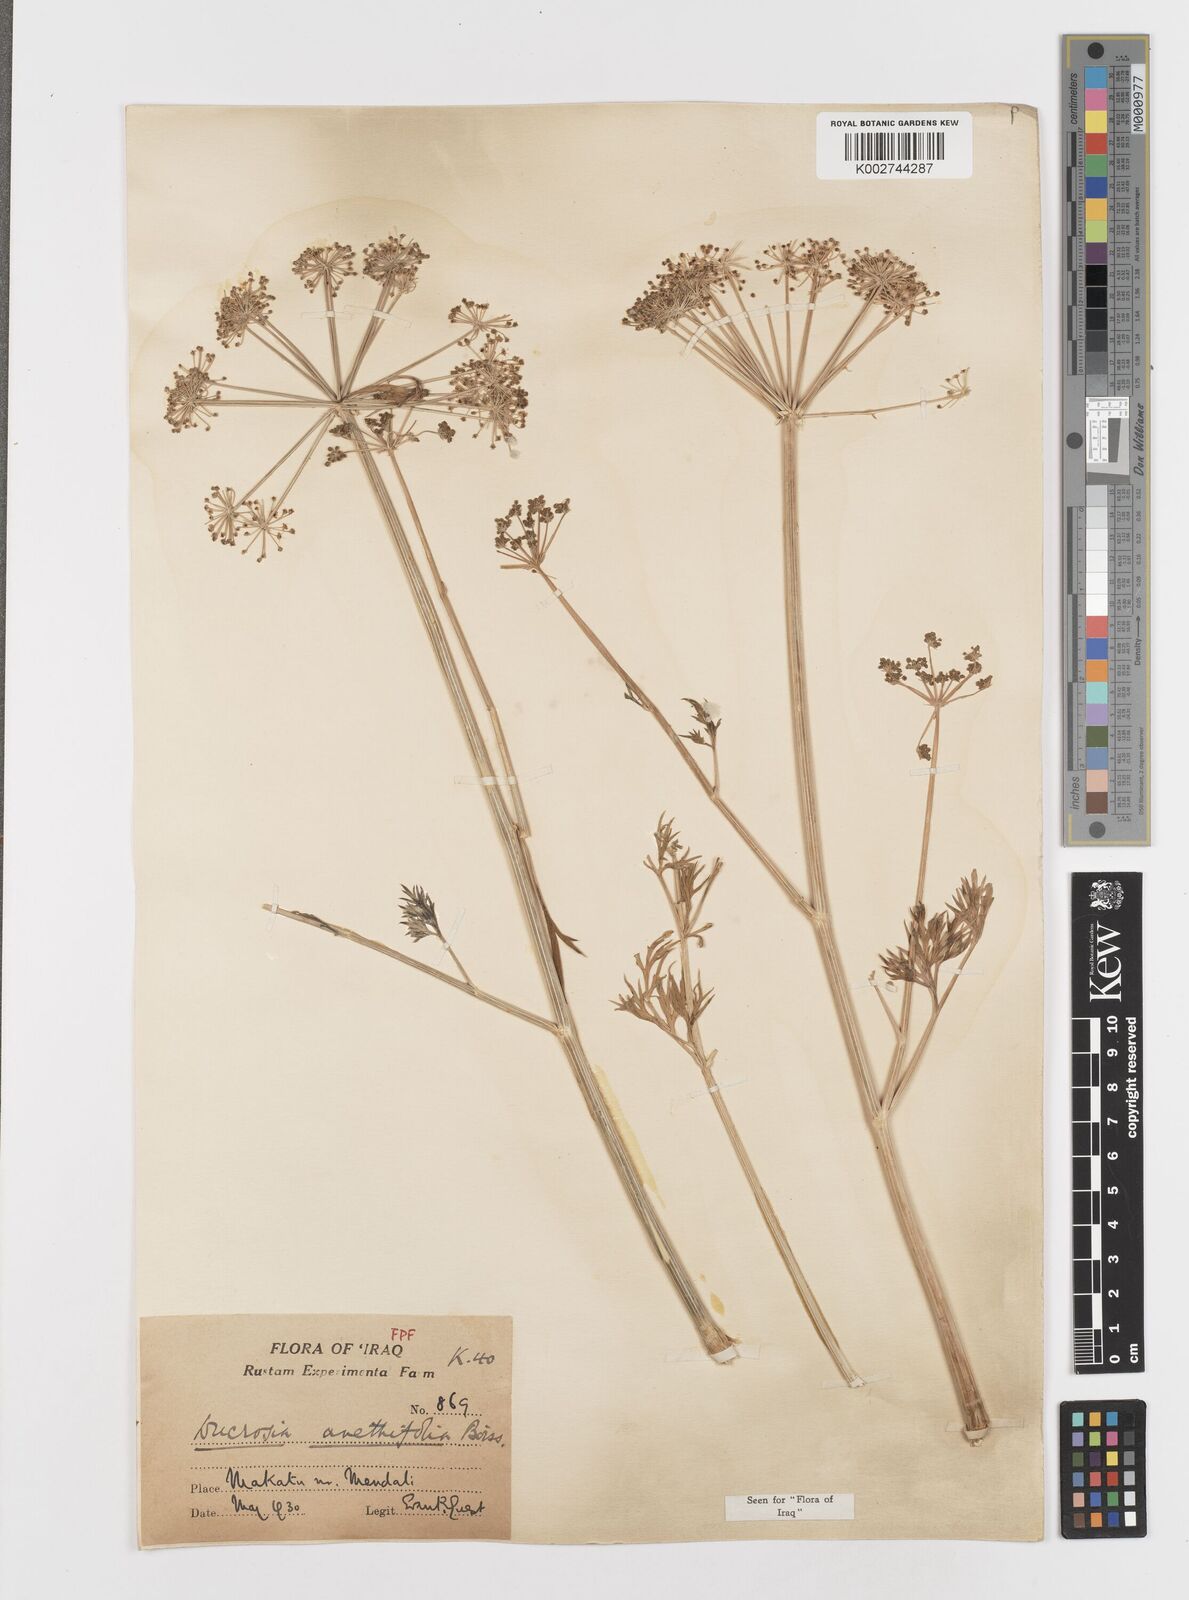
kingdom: Plantae
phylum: Tracheophyta
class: Magnoliopsida
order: Apiales
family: Apiaceae
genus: Ducrosia
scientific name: Ducrosia anethifolia
